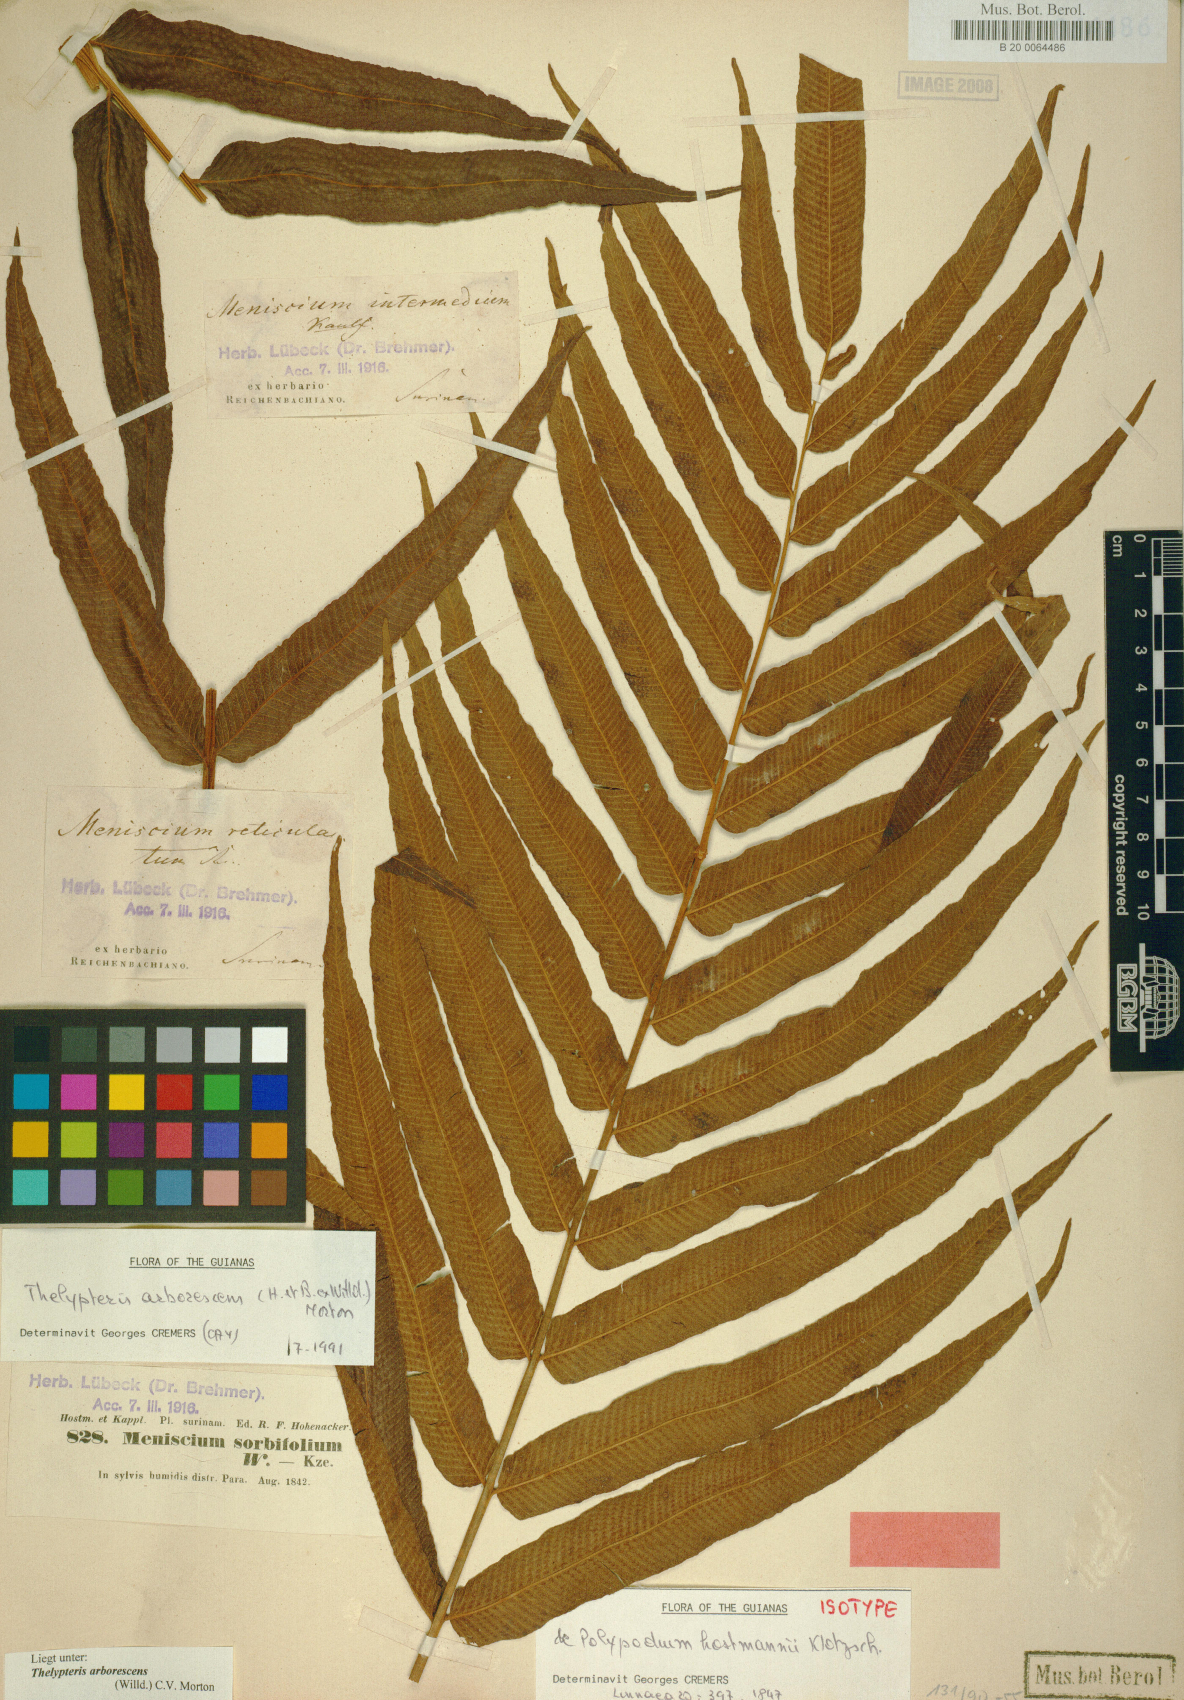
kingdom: Plantae
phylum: Tracheophyta
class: Polypodiopsida
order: Polypodiales
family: Thelypteridaceae
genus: Meniscium
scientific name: Meniscium arborescens
